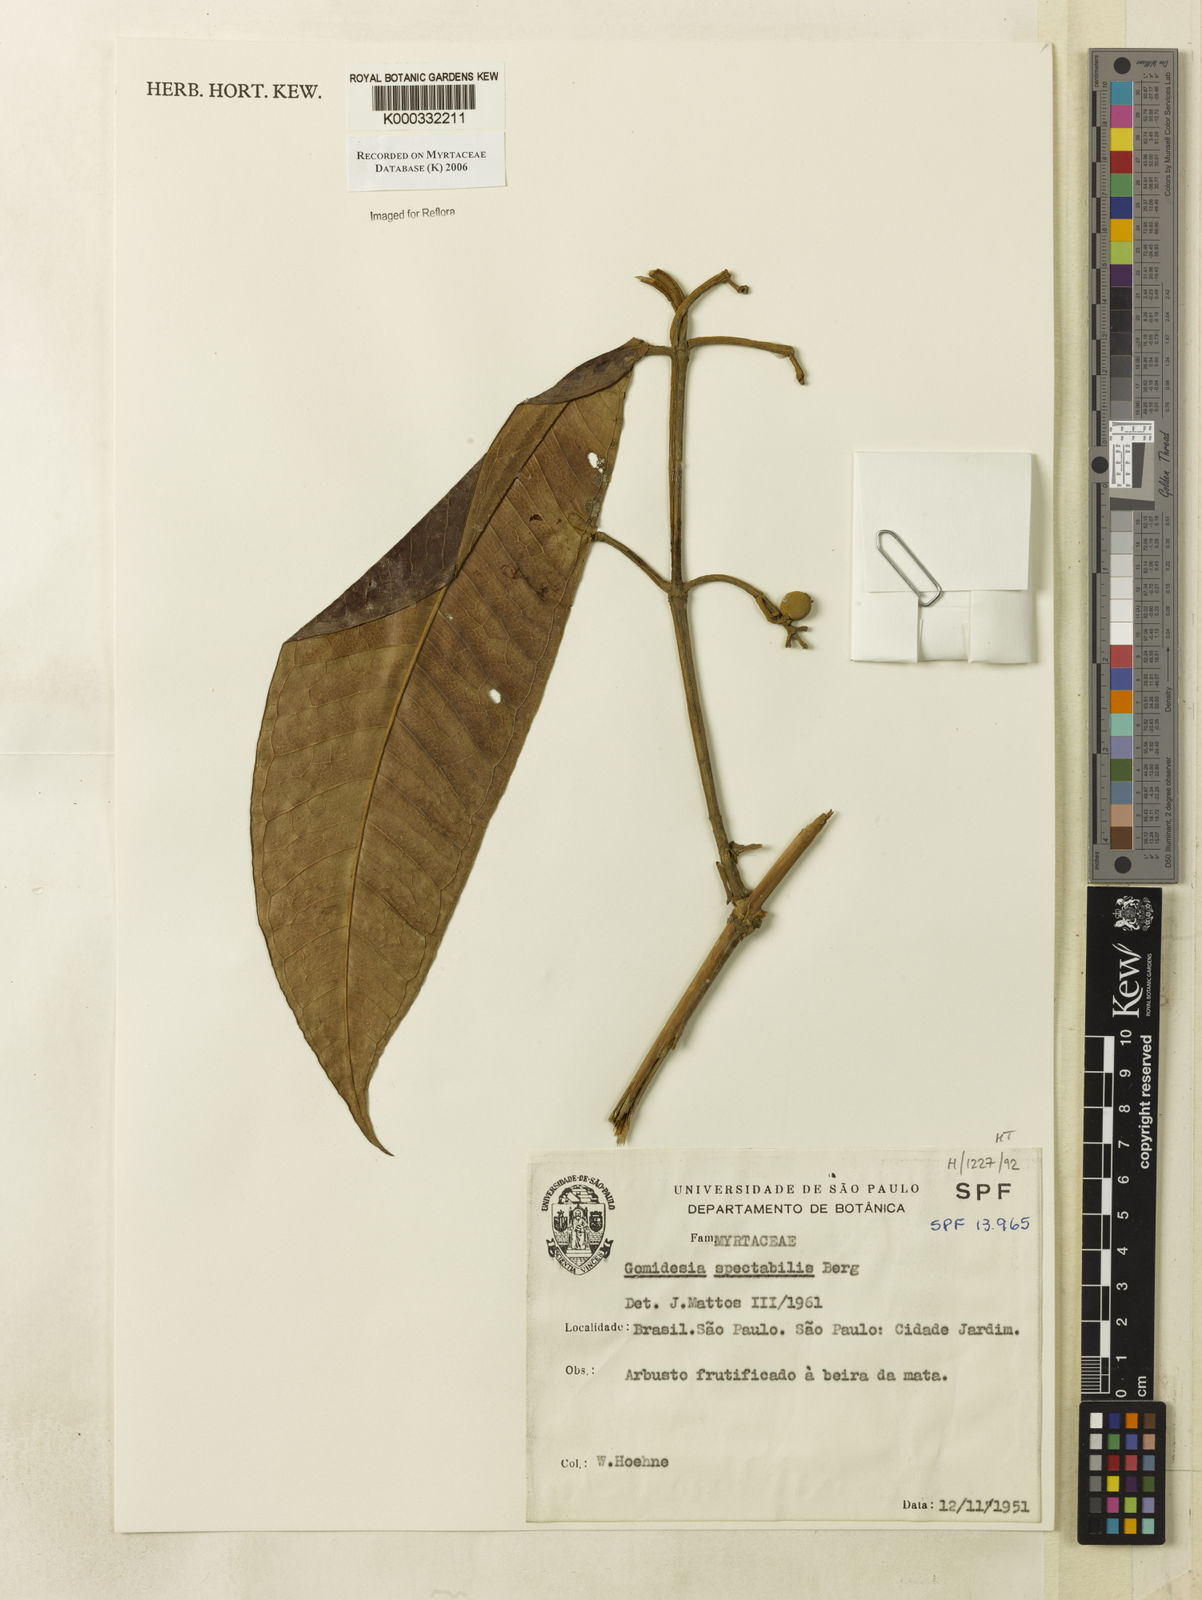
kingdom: Plantae
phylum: Tracheophyta
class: Magnoliopsida
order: Myrtales
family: Myrtaceae
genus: Myrcia
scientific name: Myrcia spectabilis
